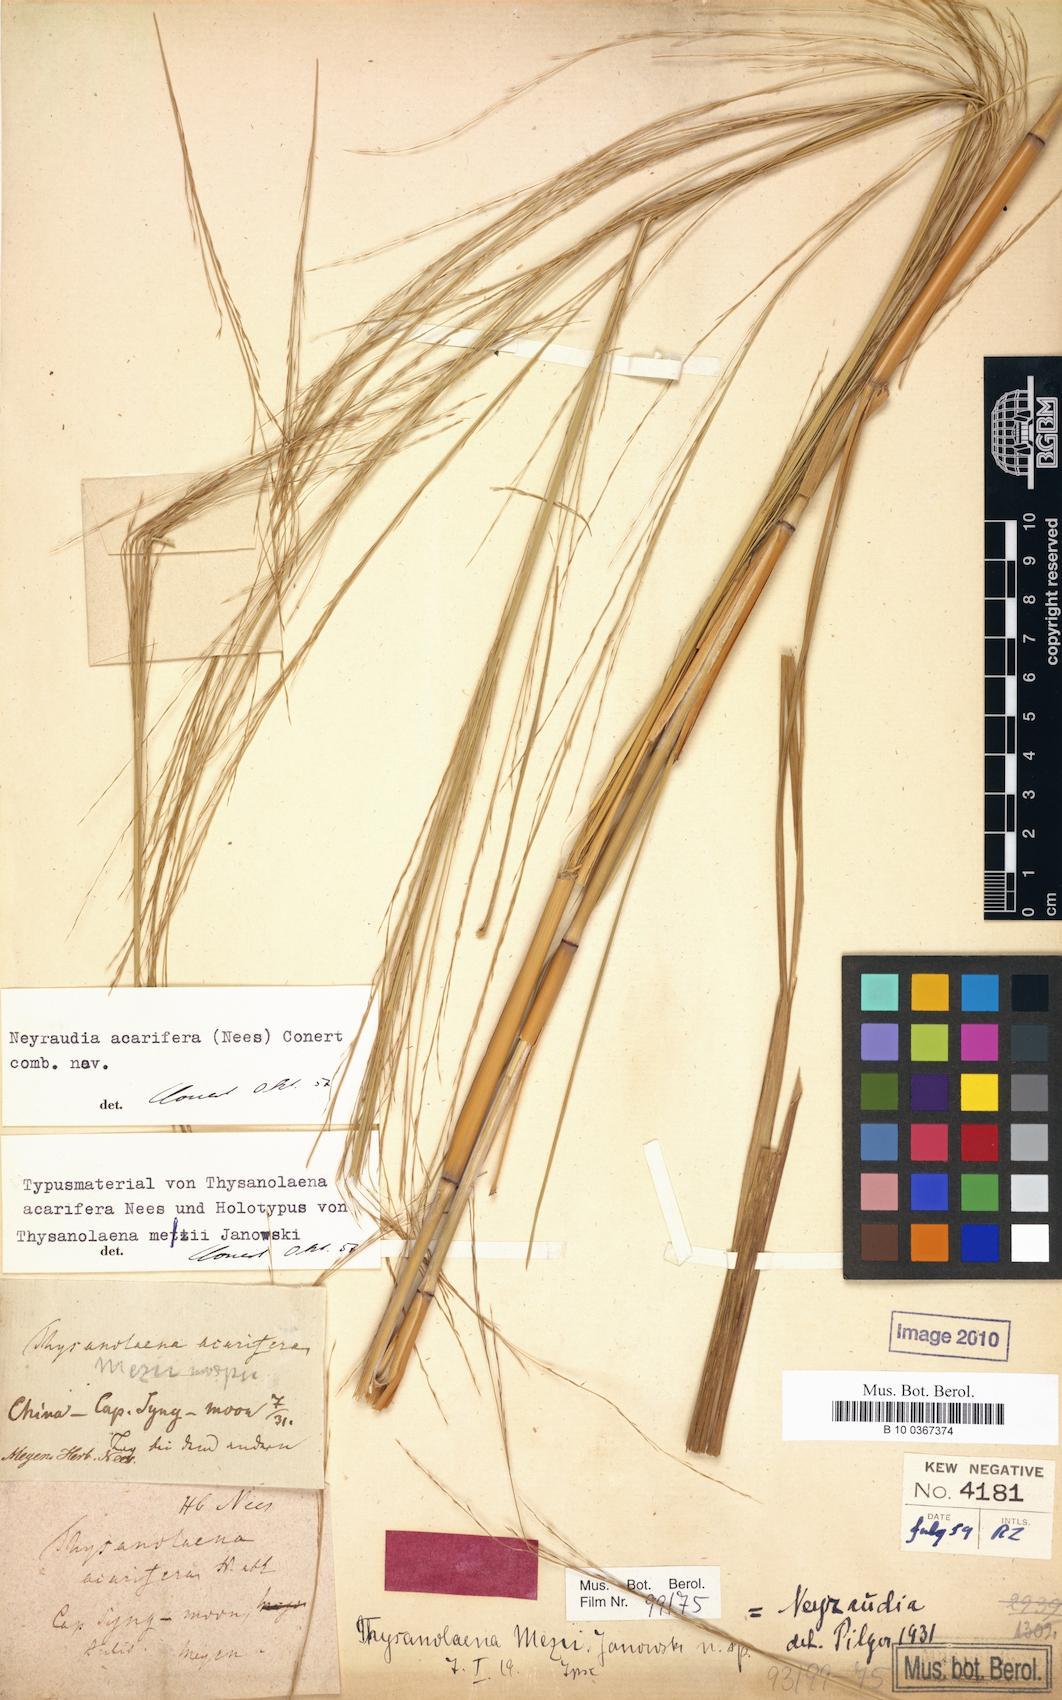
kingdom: Plantae
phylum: Tracheophyta
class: Liliopsida
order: Poales
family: Poaceae
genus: Neyraudia
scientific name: Neyraudia reynaudiana
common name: Silkreed
